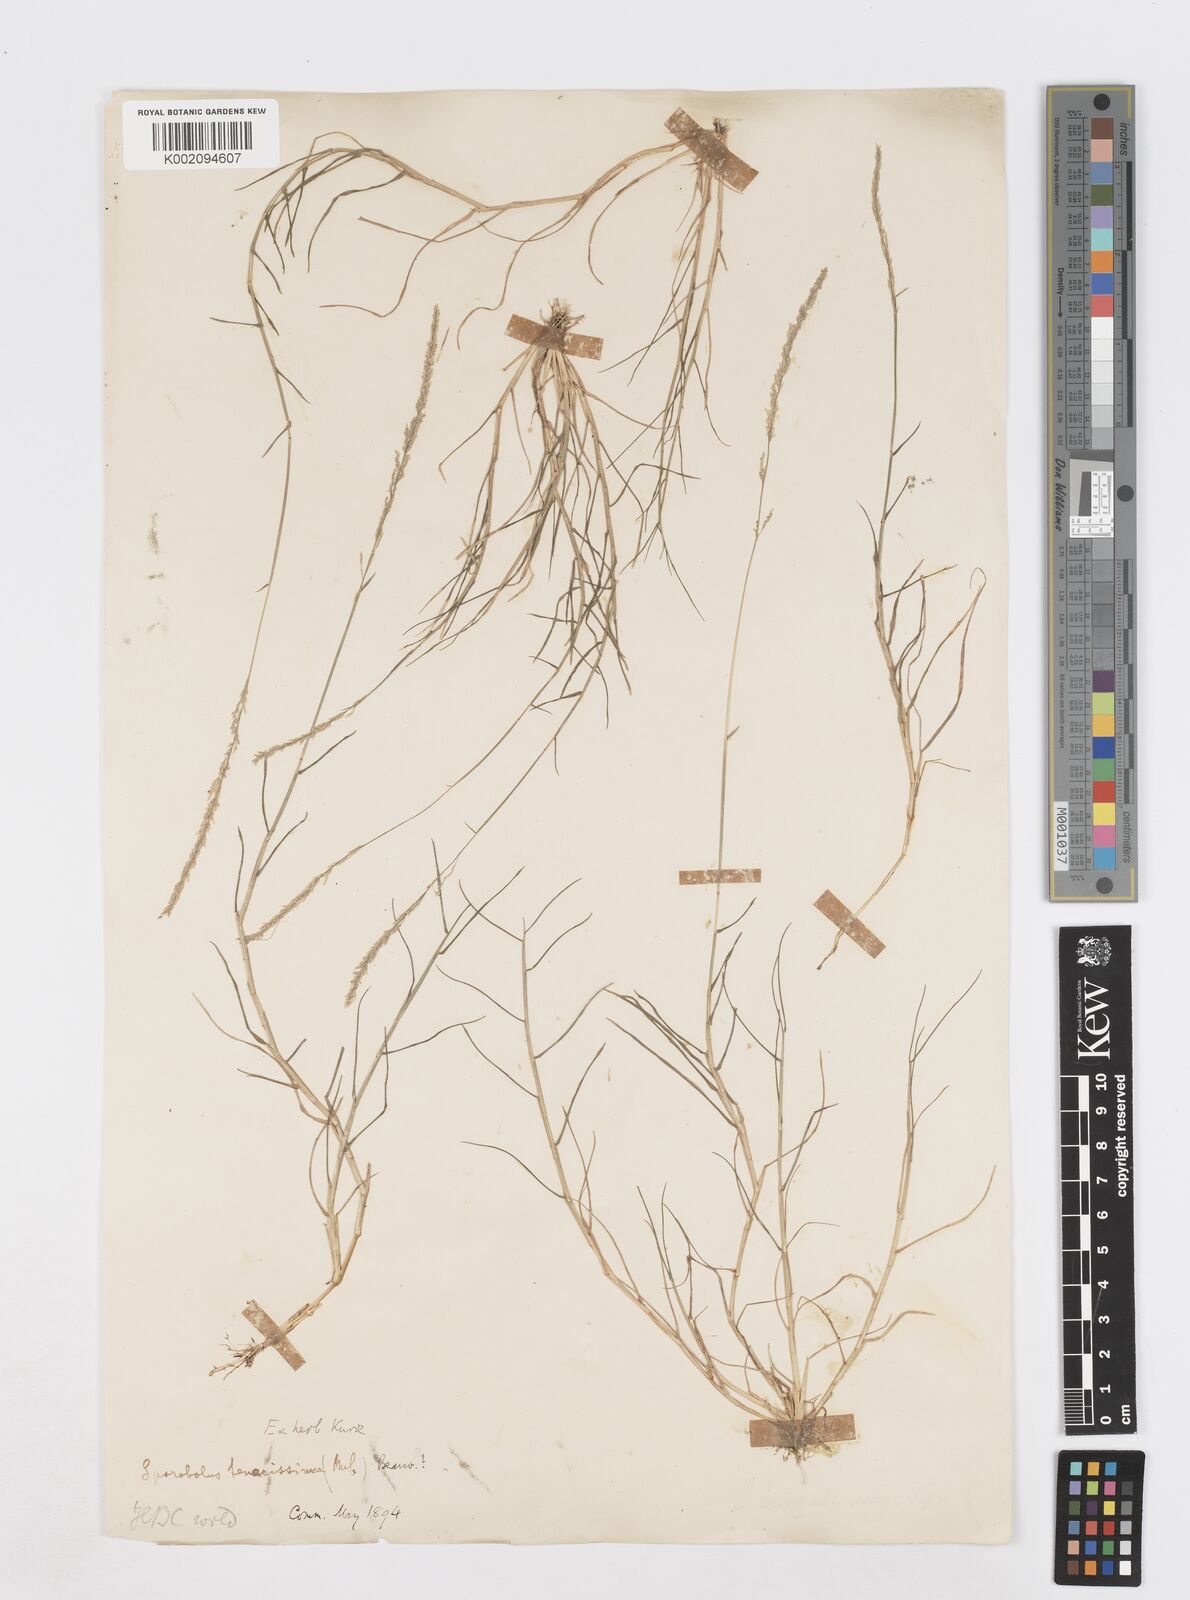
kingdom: Plantae
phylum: Tracheophyta
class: Liliopsida
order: Poales
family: Poaceae
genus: Sporobolus
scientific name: Sporobolus virginicus
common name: Beach dropseed
